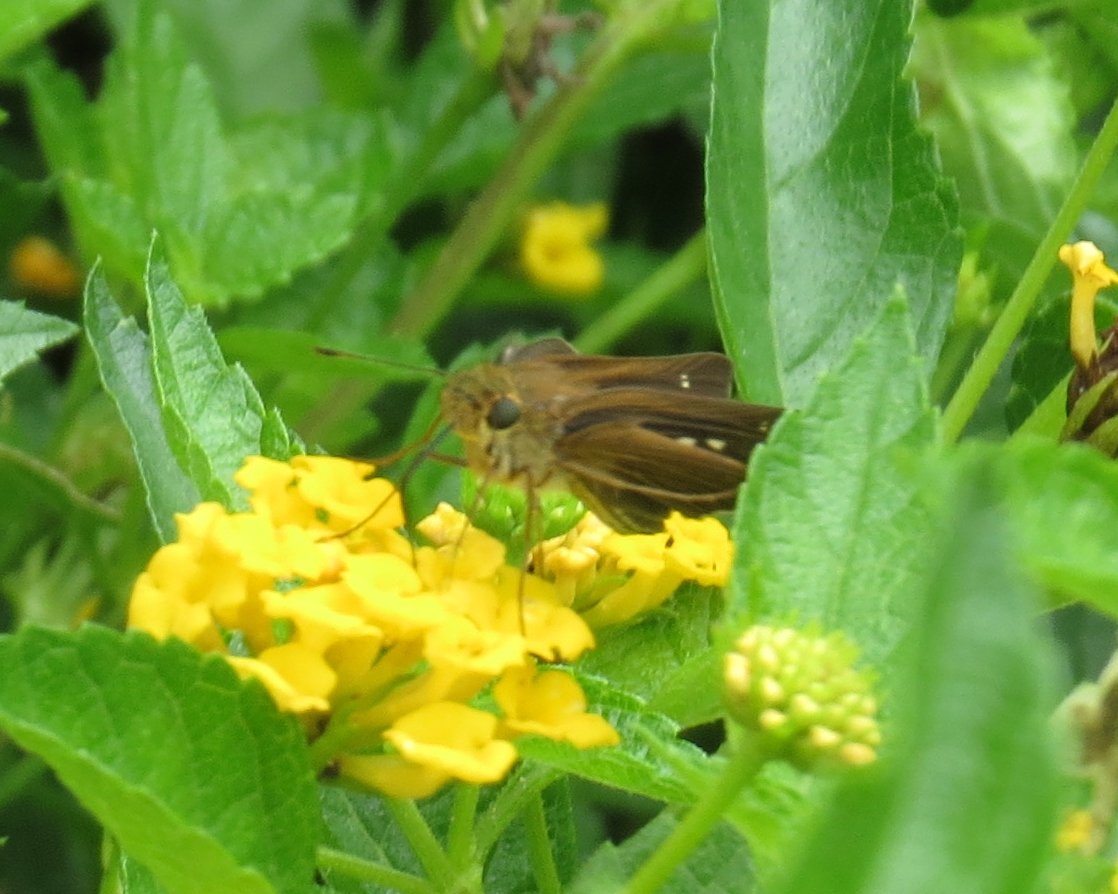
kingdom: Animalia
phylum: Arthropoda
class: Insecta
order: Lepidoptera
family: Hesperiidae
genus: Panoquina
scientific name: Panoquina ocola
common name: Ocola Skipper
